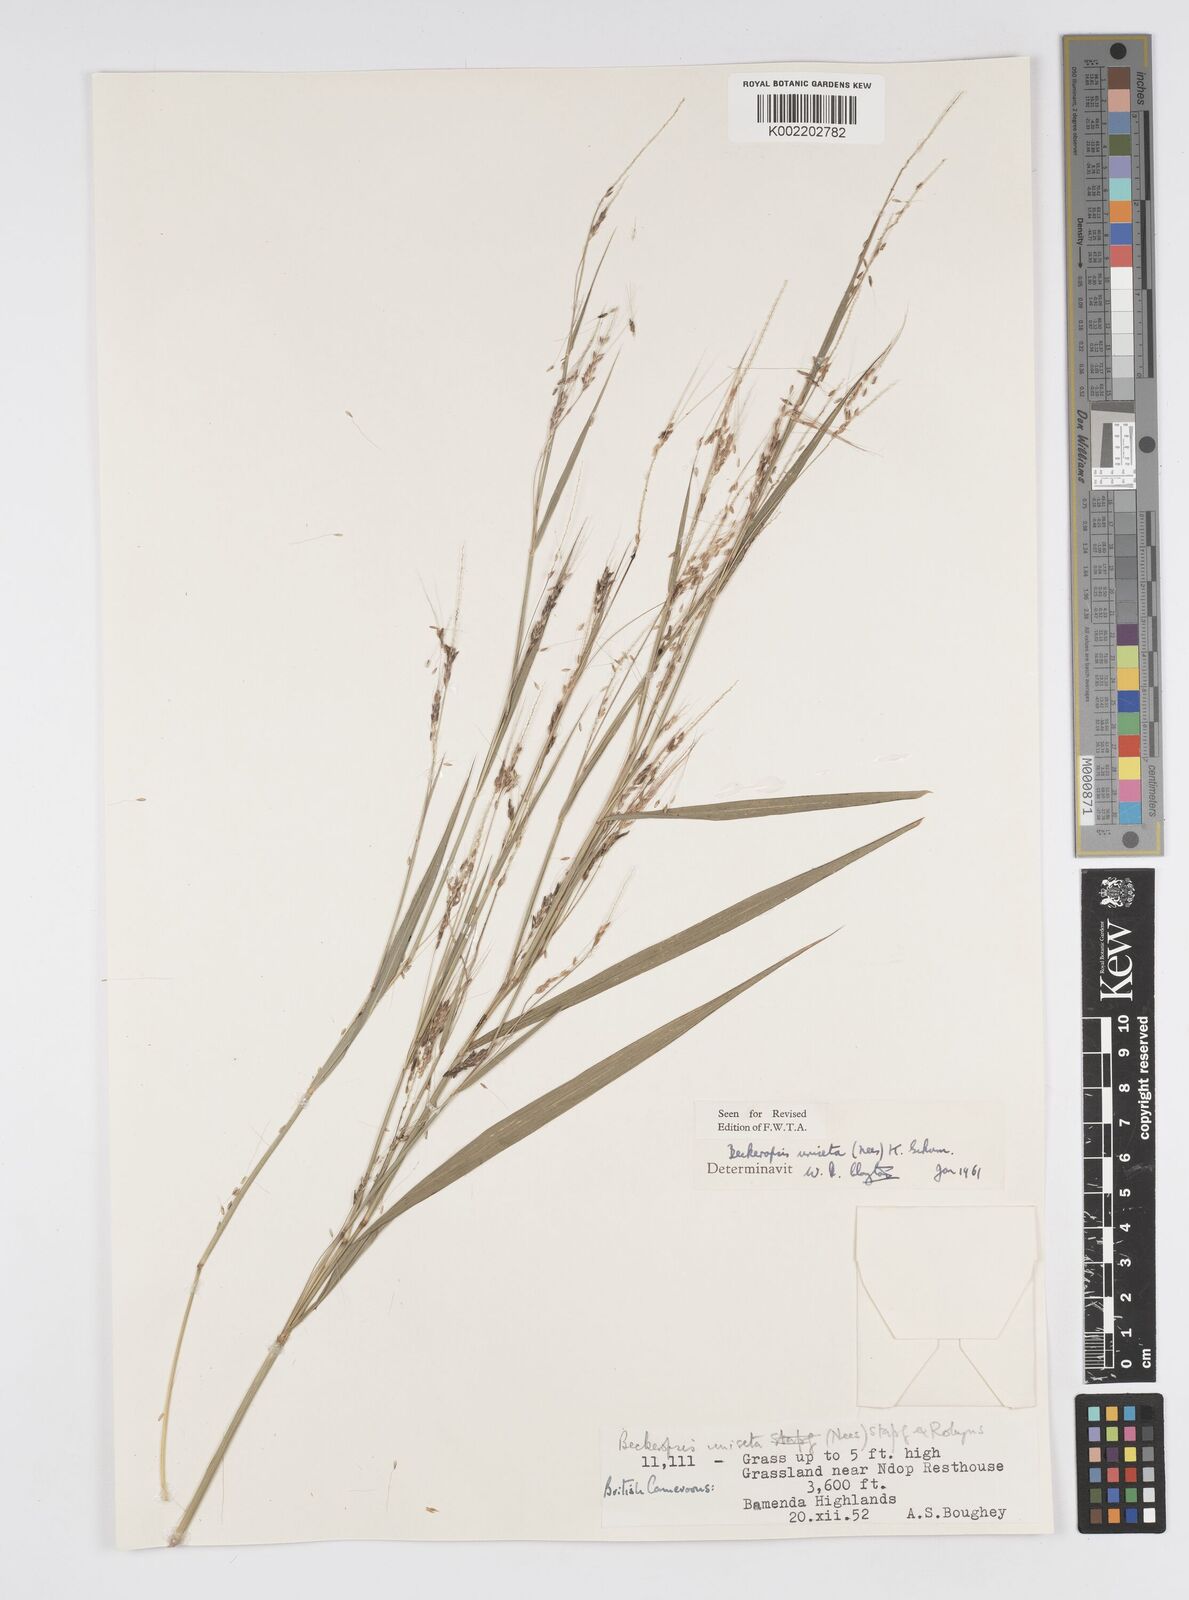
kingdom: Plantae
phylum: Tracheophyta
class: Liliopsida
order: Poales
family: Poaceae
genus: Cenchrus
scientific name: Cenchrus unisetus
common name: Natal grass
